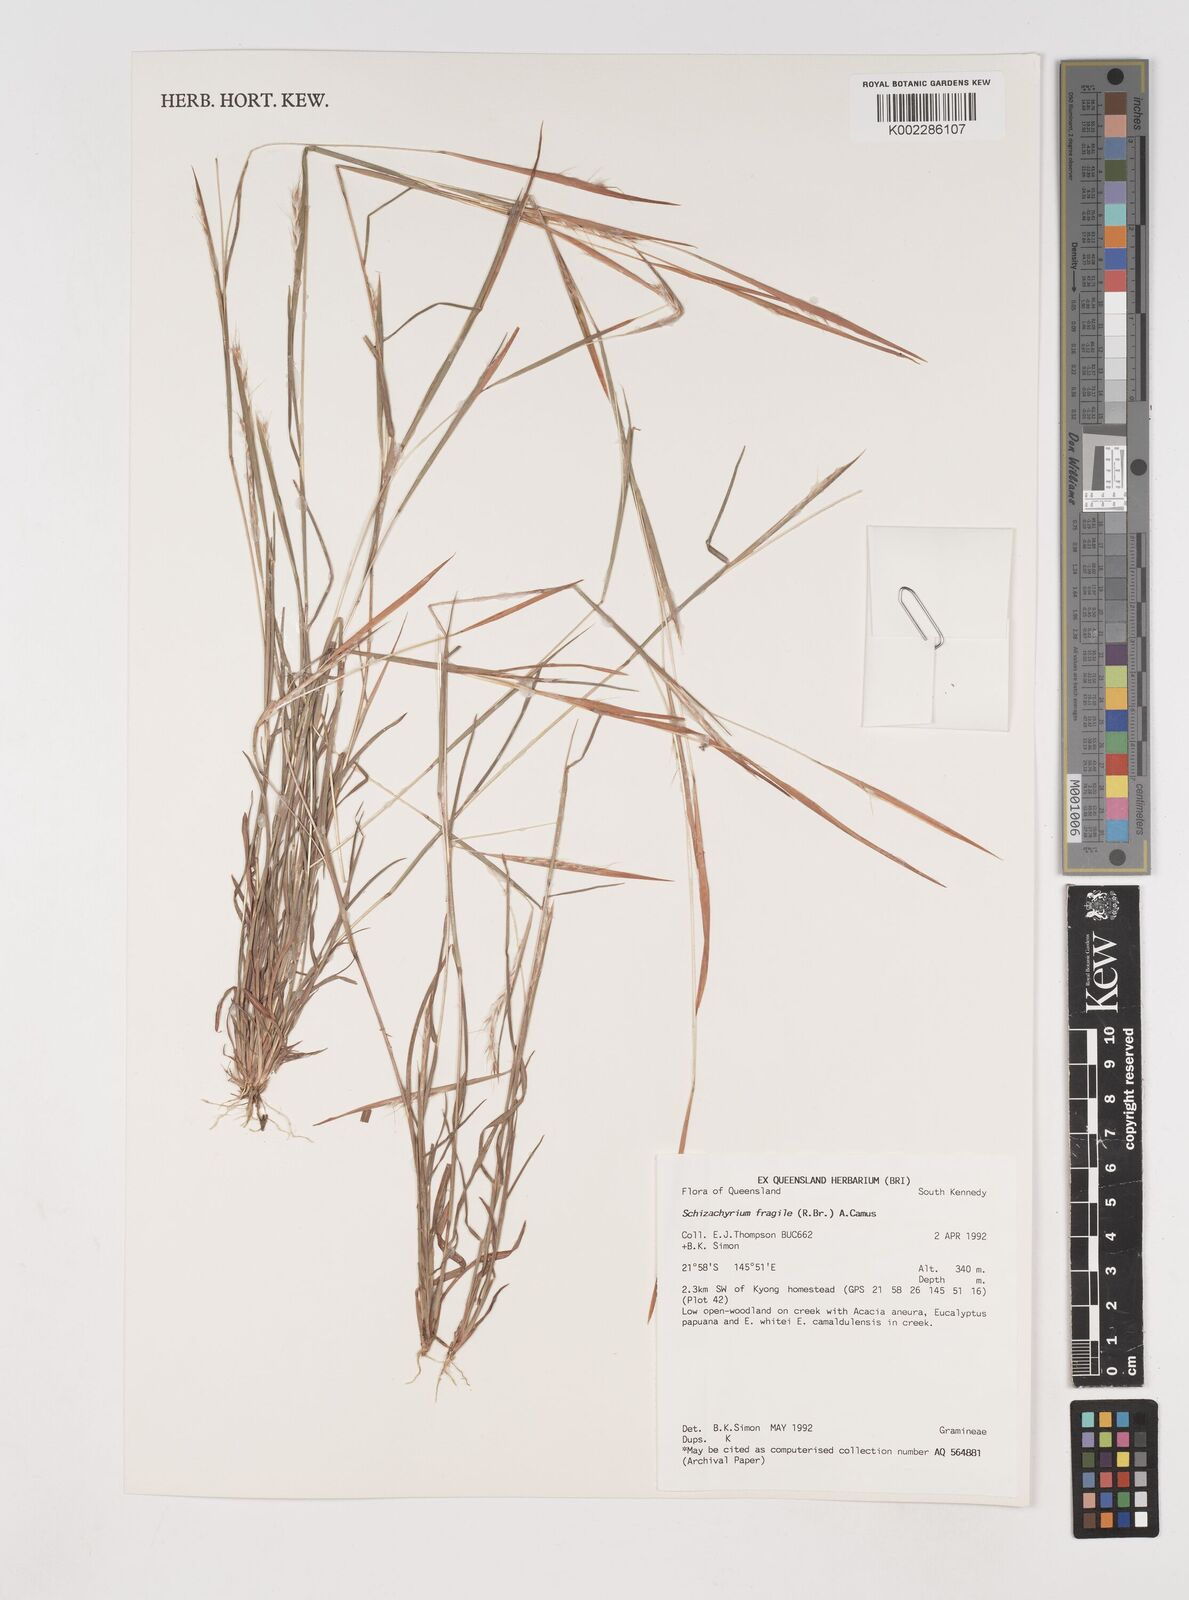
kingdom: Plantae
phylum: Tracheophyta
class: Liliopsida
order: Poales
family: Poaceae
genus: Schizachyrium
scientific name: Schizachyrium fragile
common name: Red spathe grass
